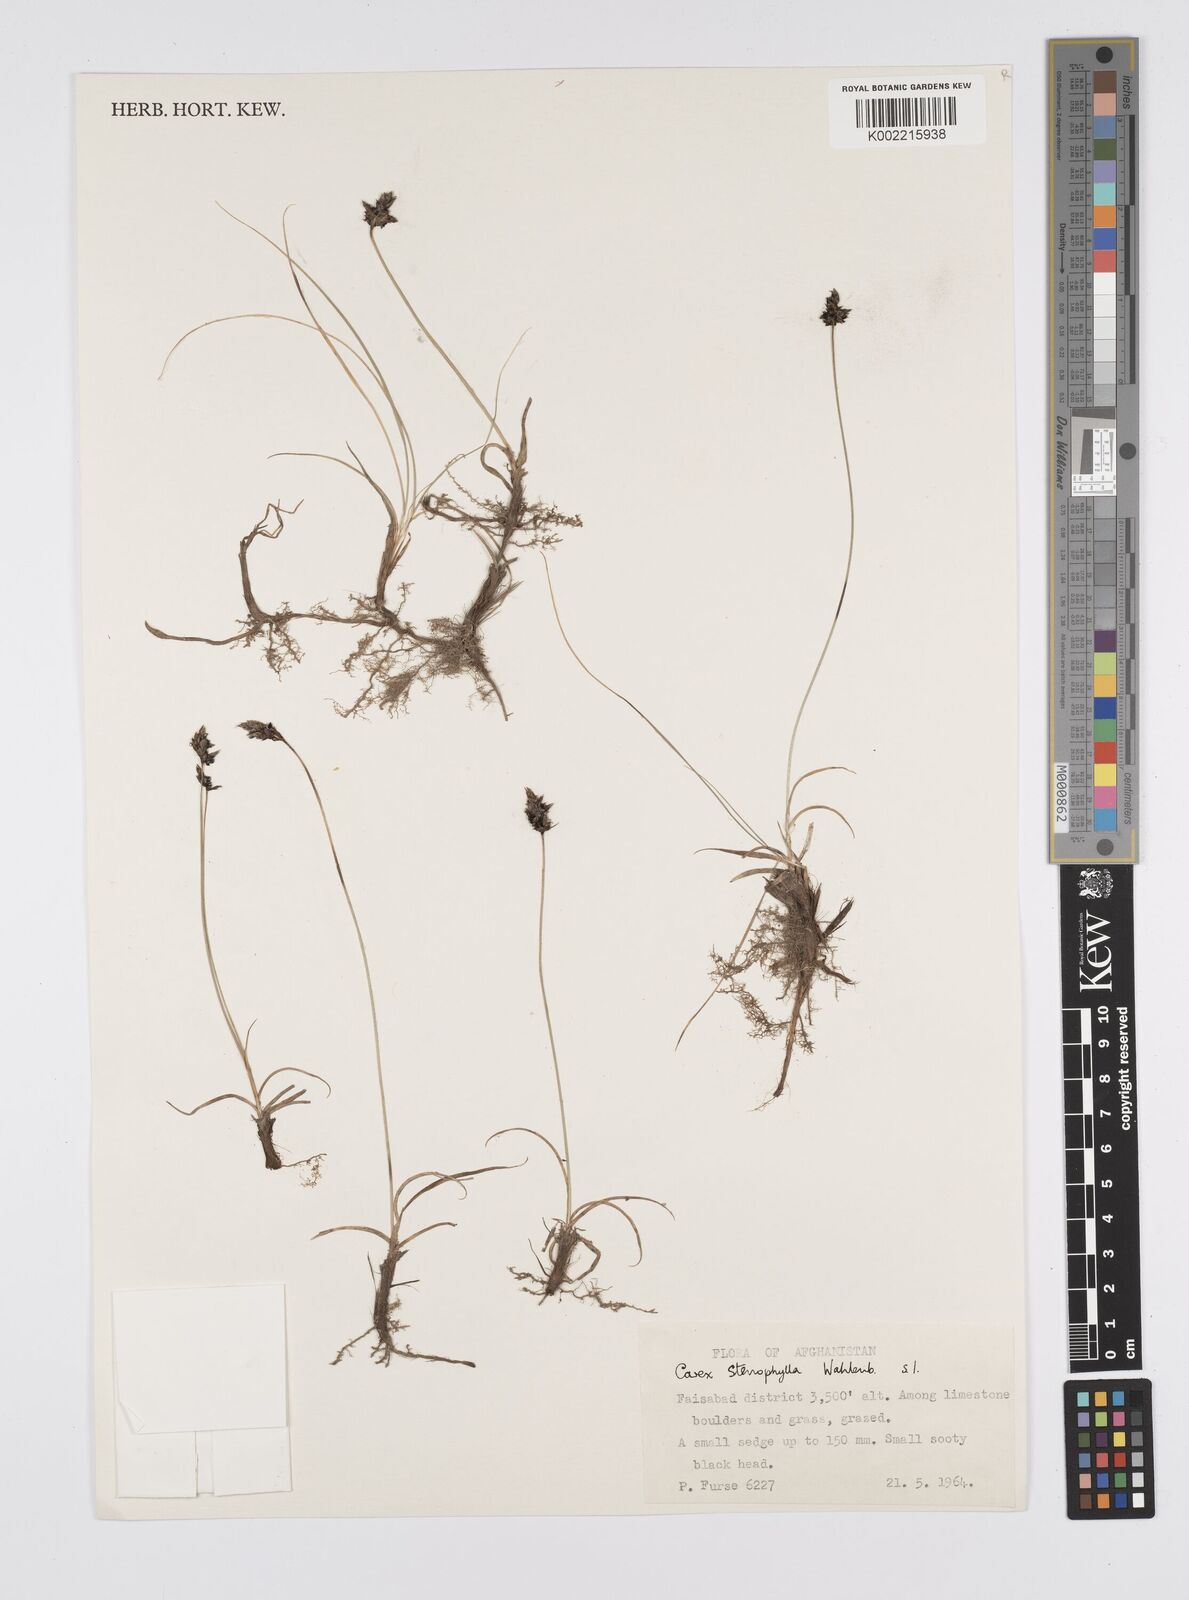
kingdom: Plantae
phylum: Tracheophyta
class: Liliopsida
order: Poales
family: Cyperaceae
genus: Carex
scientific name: Carex stenophylla
